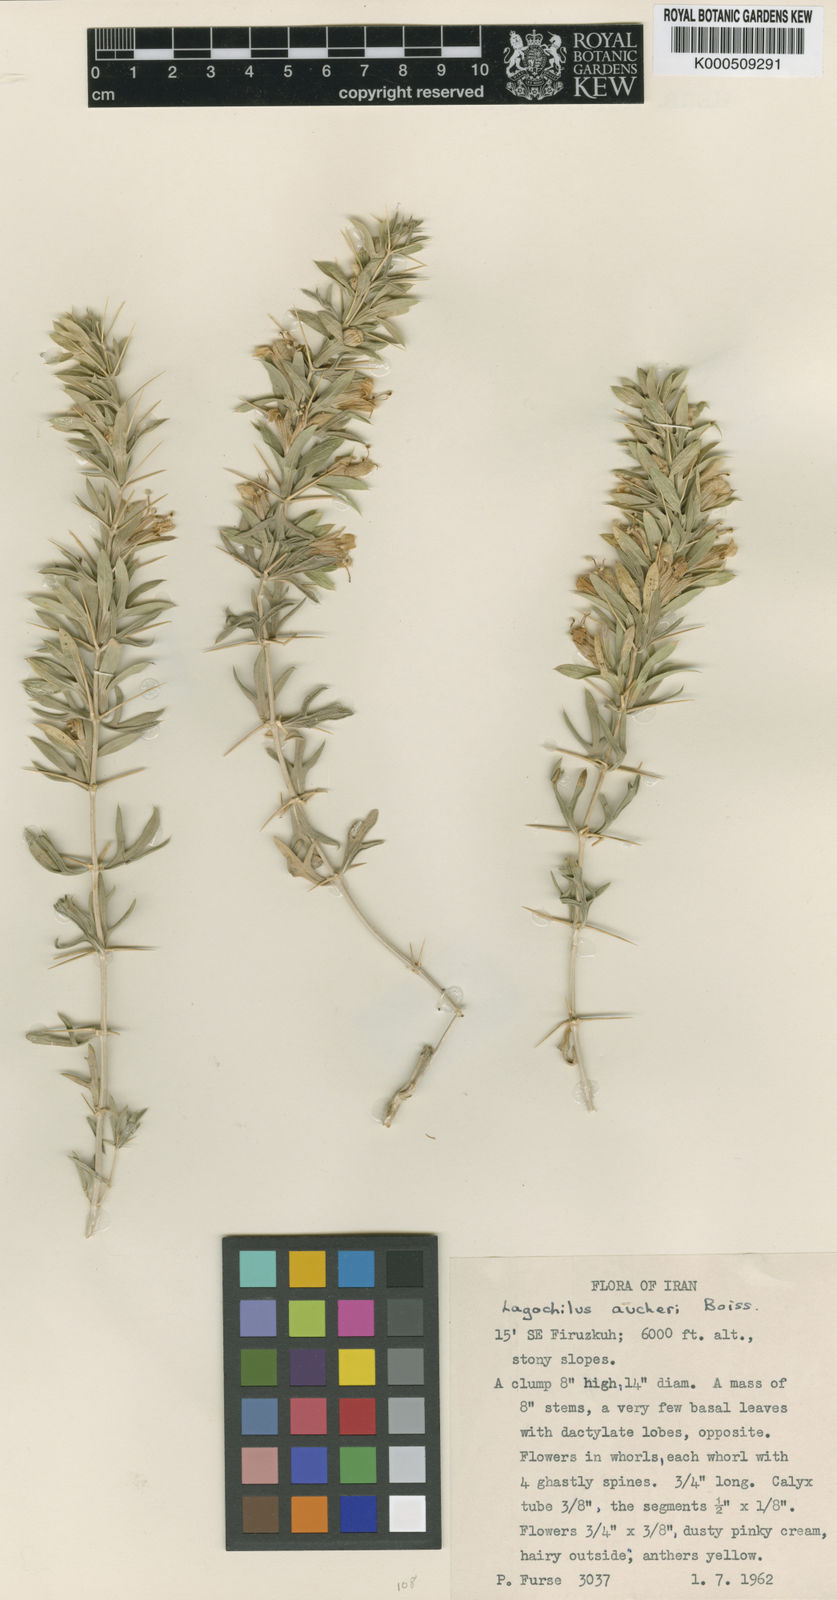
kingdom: Plantae
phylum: Tracheophyta
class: Magnoliopsida
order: Lamiales
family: Lamiaceae
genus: Lagochilus
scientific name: Lagochilus aucheri
